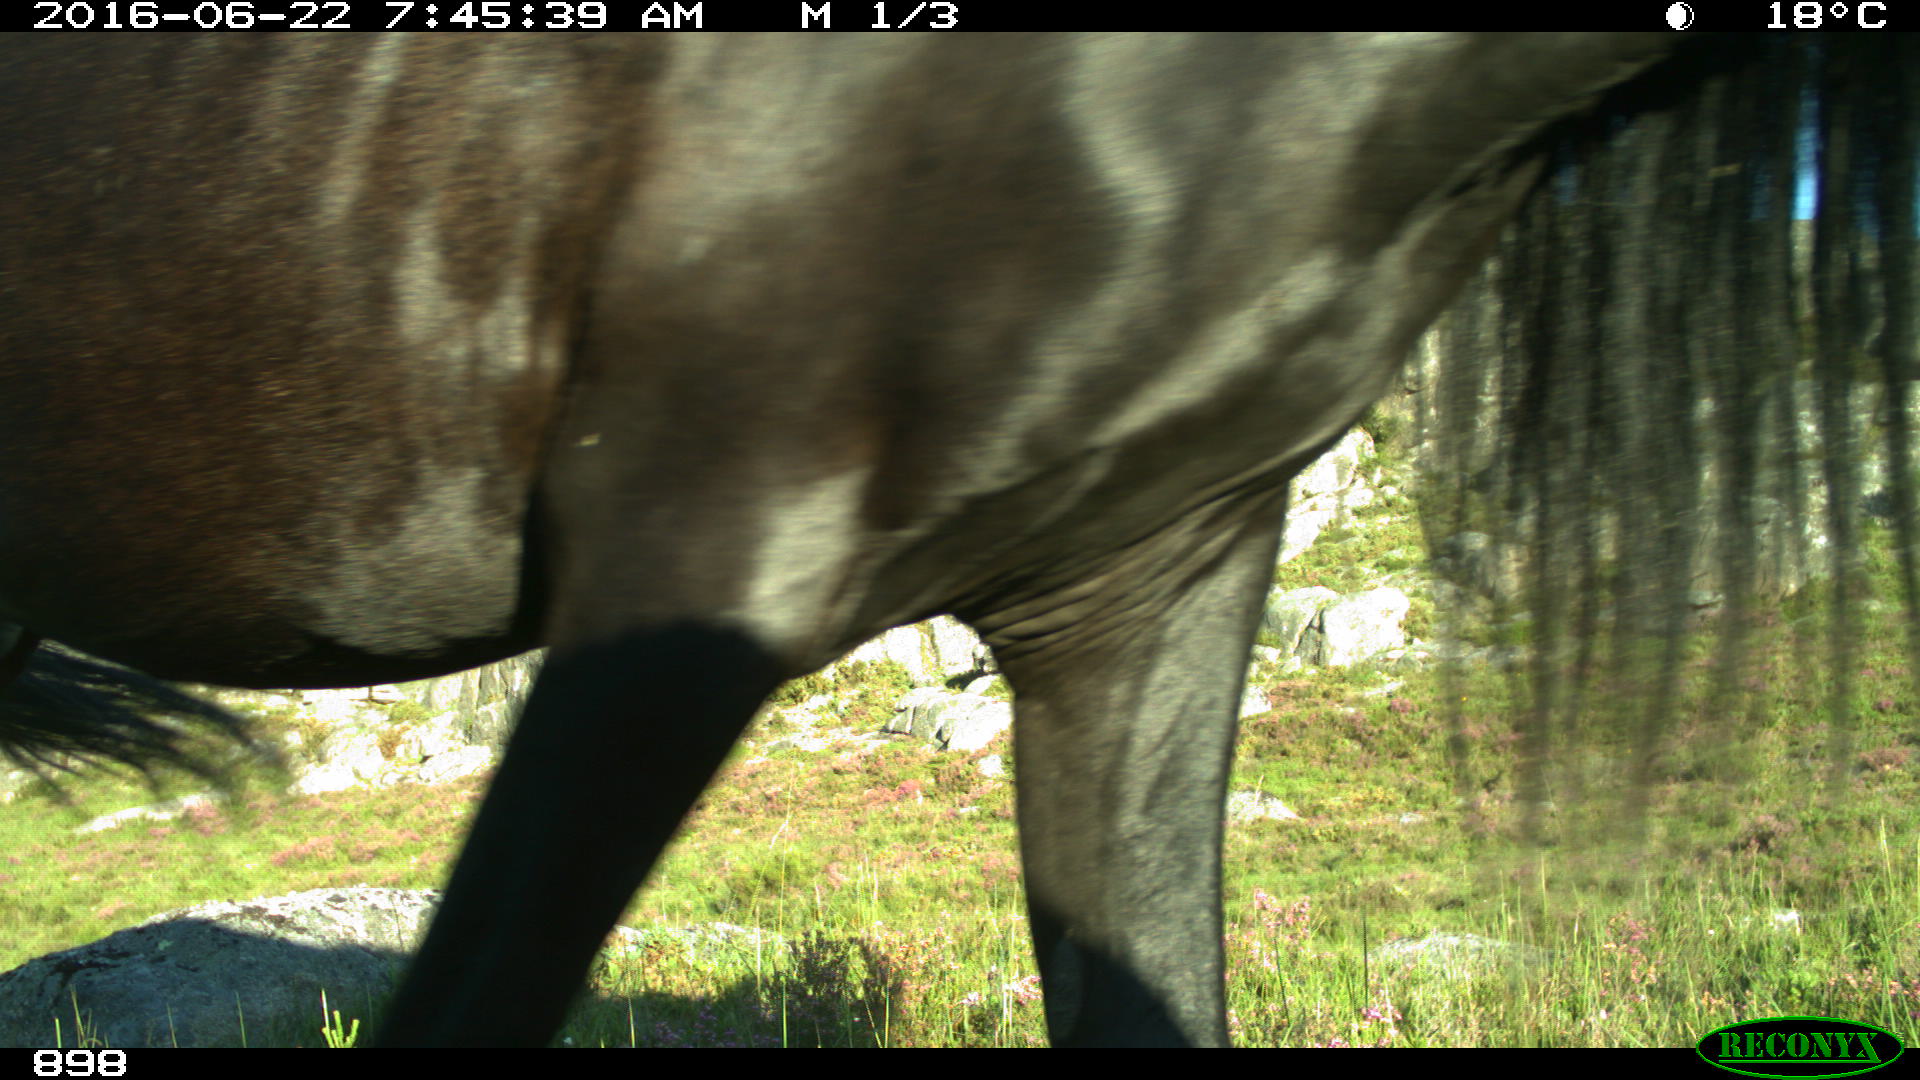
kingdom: Animalia
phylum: Chordata
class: Mammalia
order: Perissodactyla
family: Equidae
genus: Equus
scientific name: Equus caballus
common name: Horse
